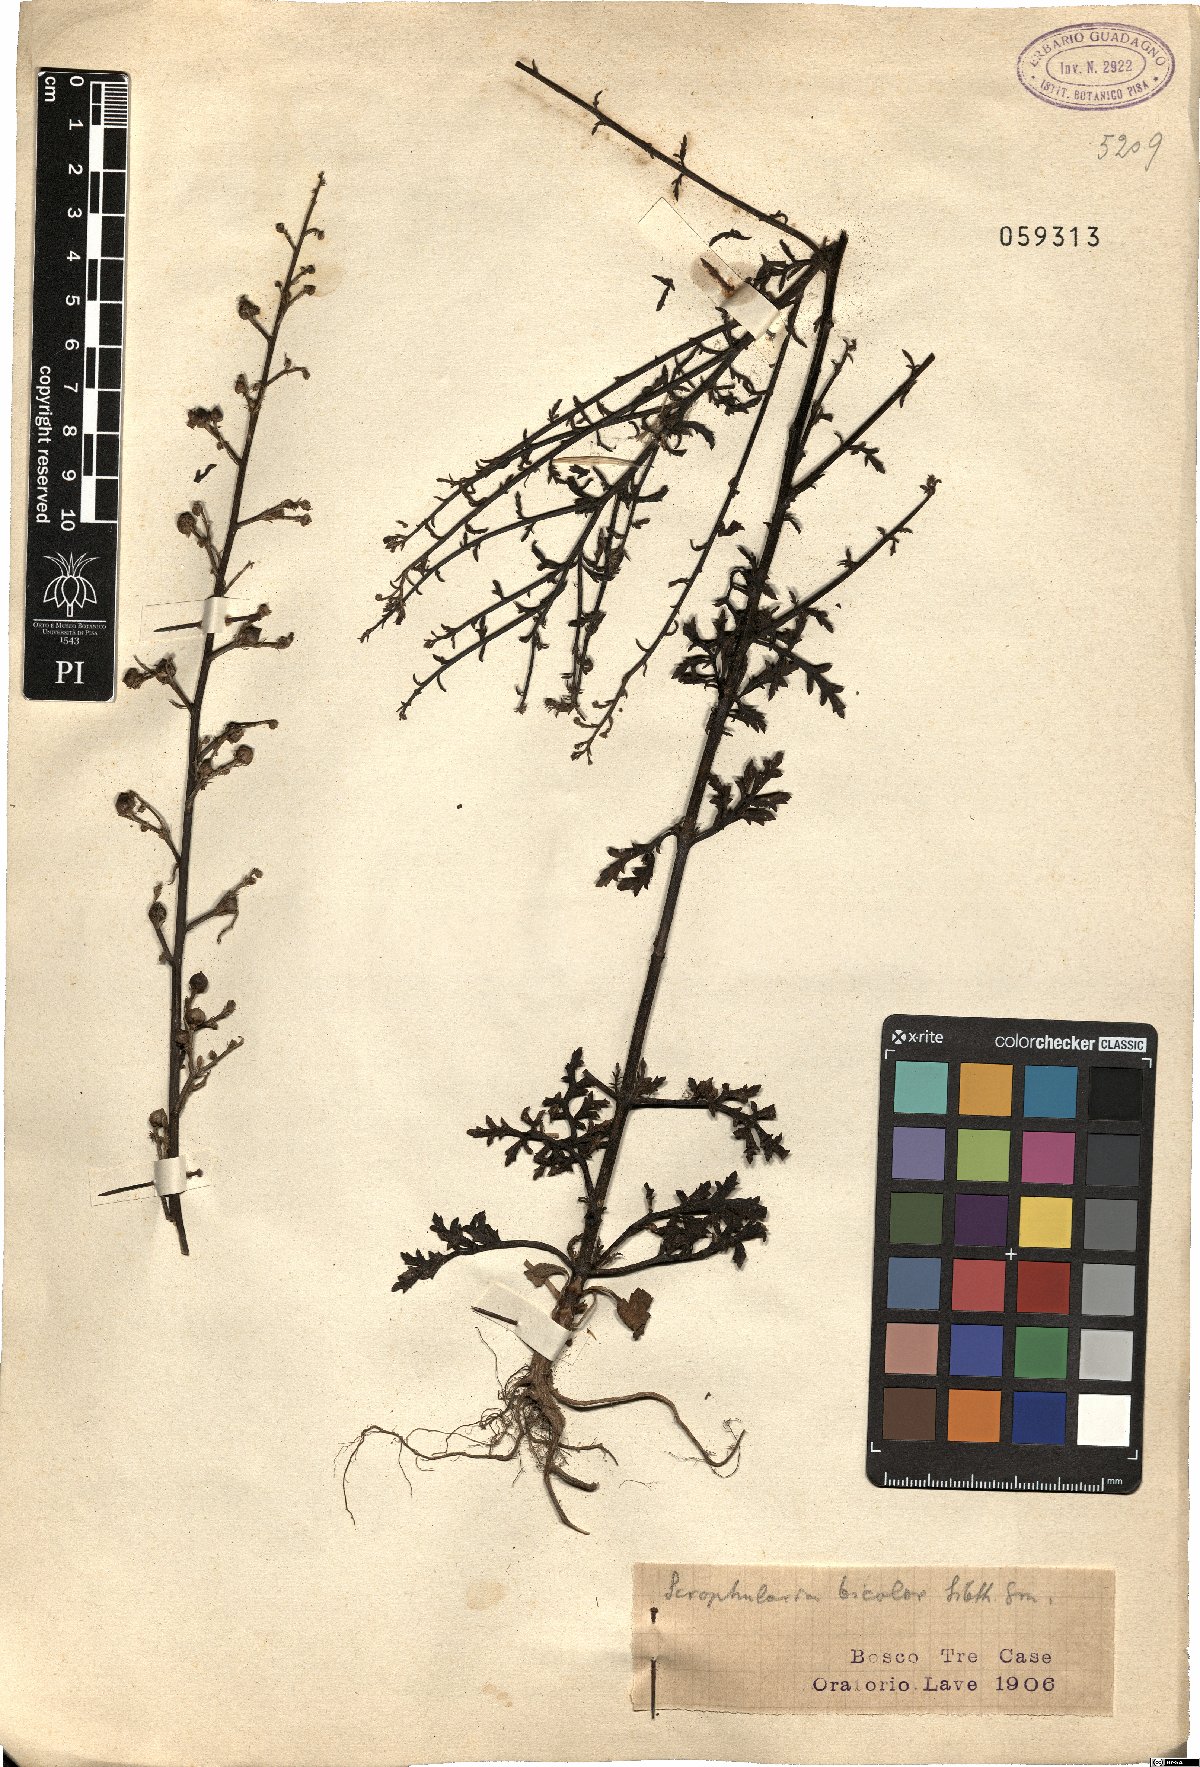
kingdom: Plantae
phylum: Tracheophyta
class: Magnoliopsida
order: Lamiales
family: Scrophulariaceae
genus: Scrophularia
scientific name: Scrophularia canina
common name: French figwort
